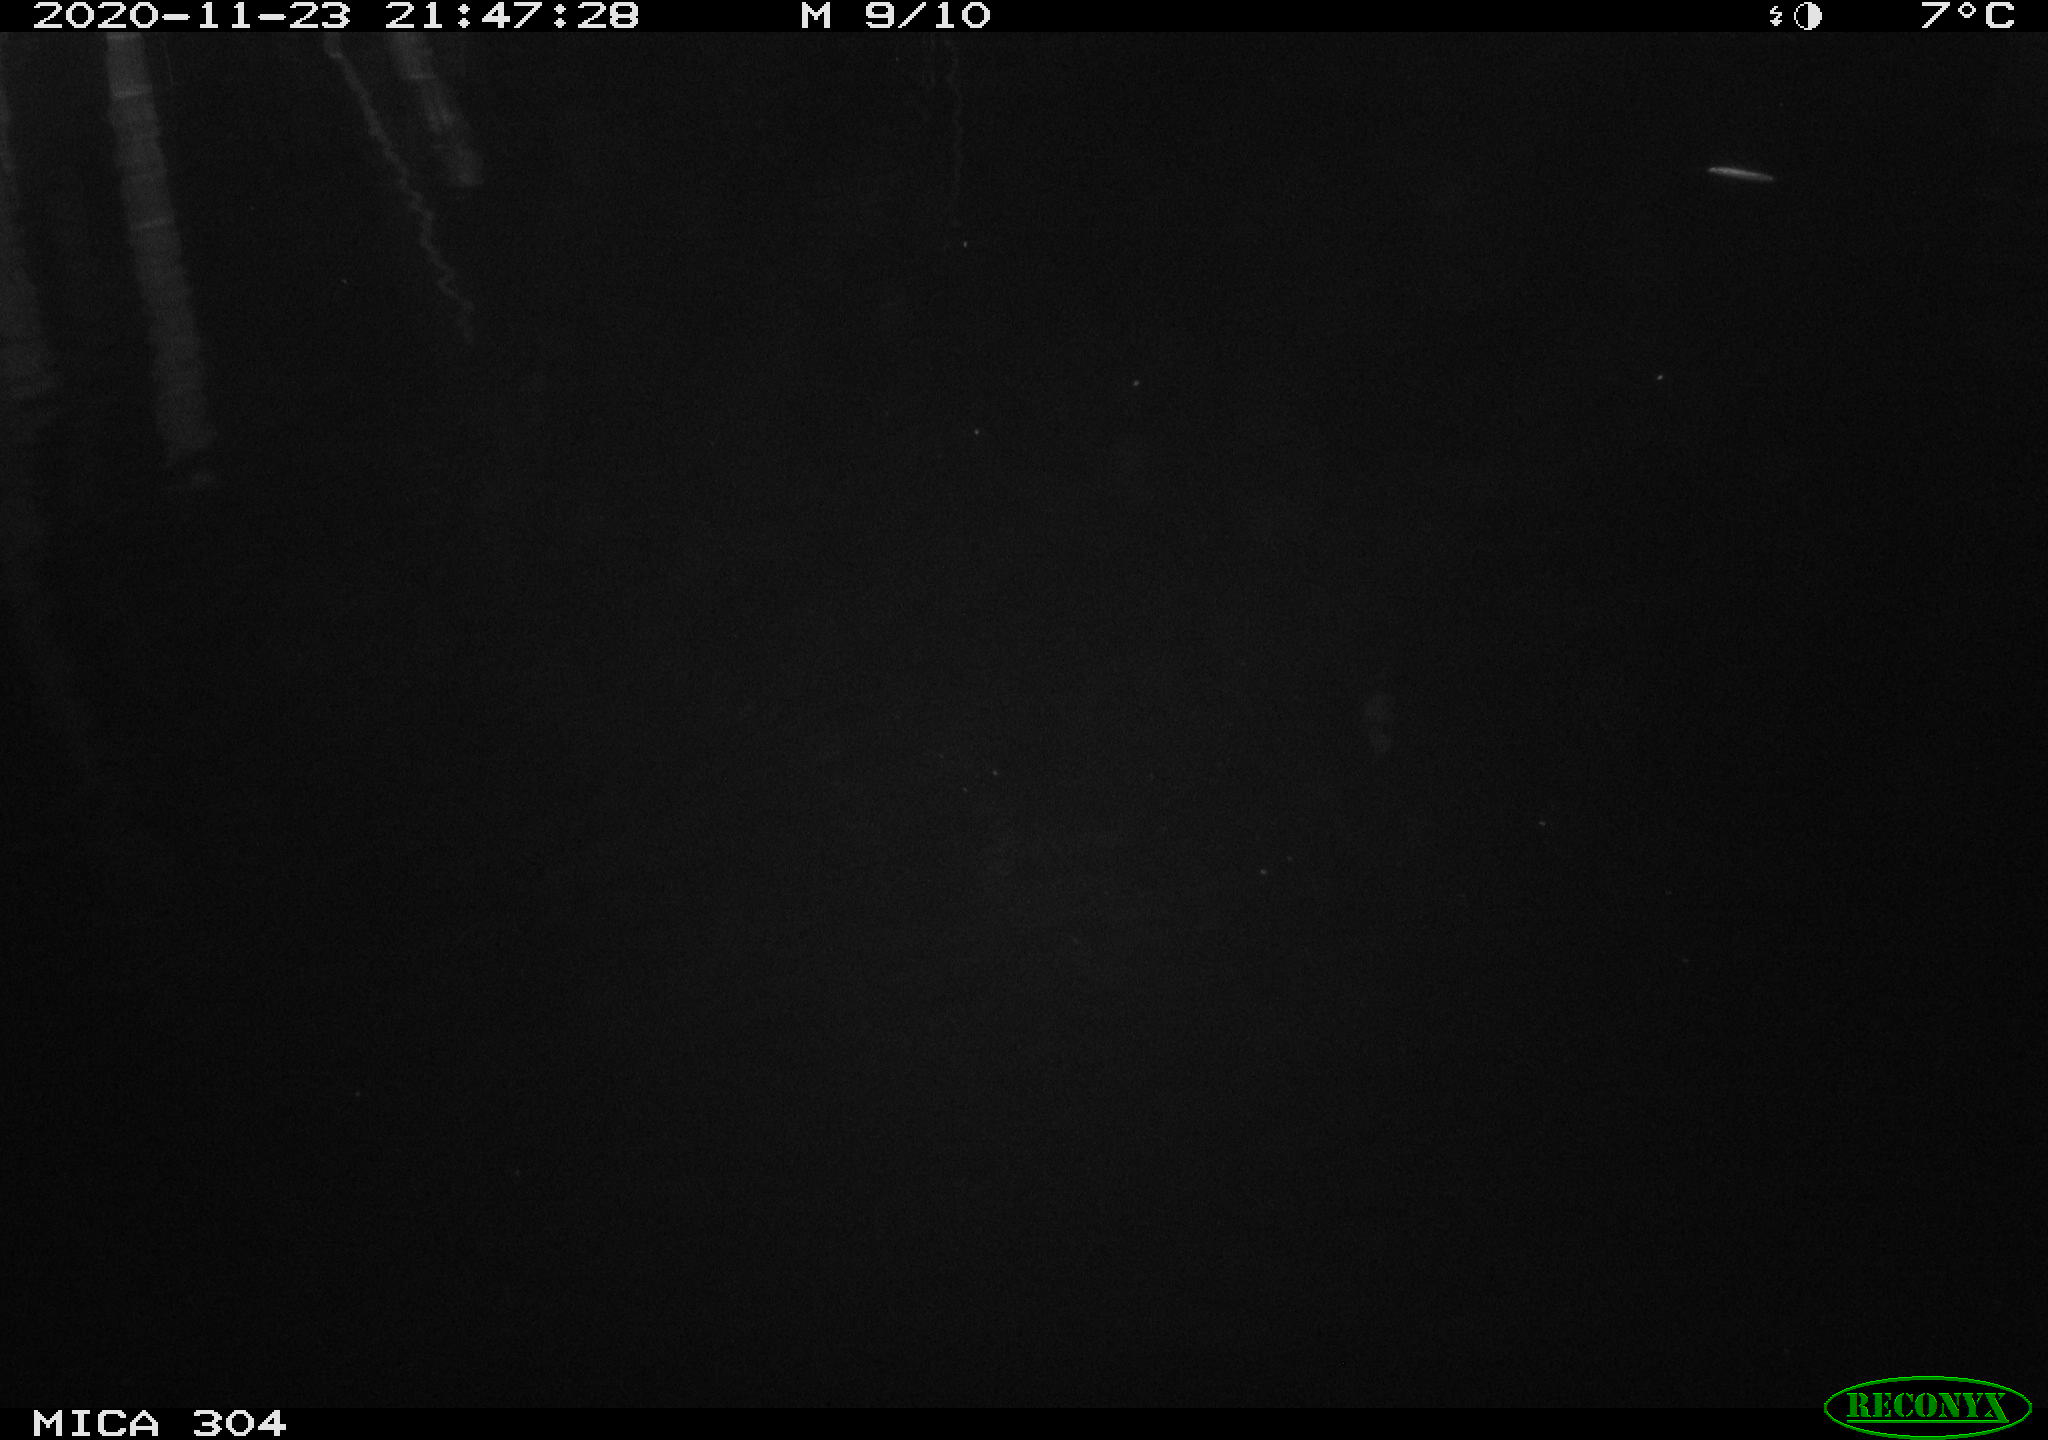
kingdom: Animalia
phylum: Chordata
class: Mammalia
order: Rodentia
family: Muridae
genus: Rattus
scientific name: Rattus norvegicus
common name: Brown rat
